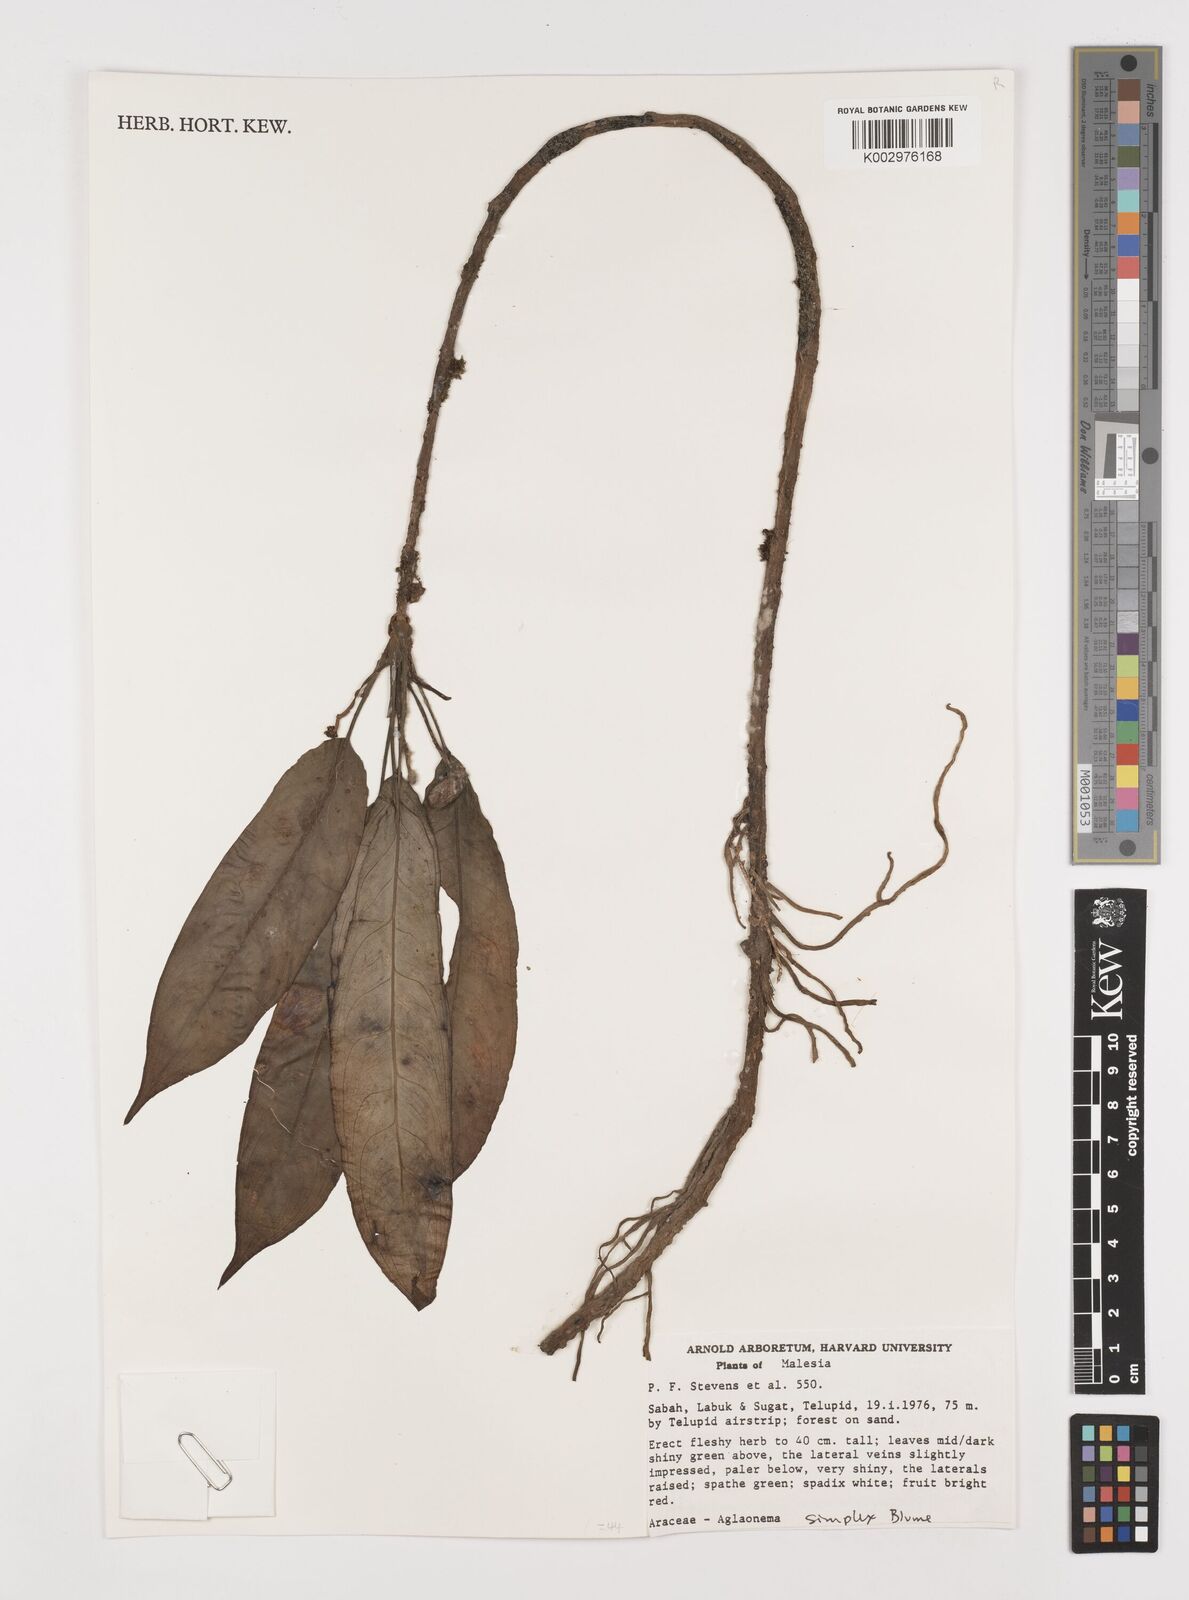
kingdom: Plantae
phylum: Tracheophyta
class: Liliopsida
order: Alismatales
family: Araceae
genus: Aglaonema
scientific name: Aglaonema simplex
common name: Malayan-sword
